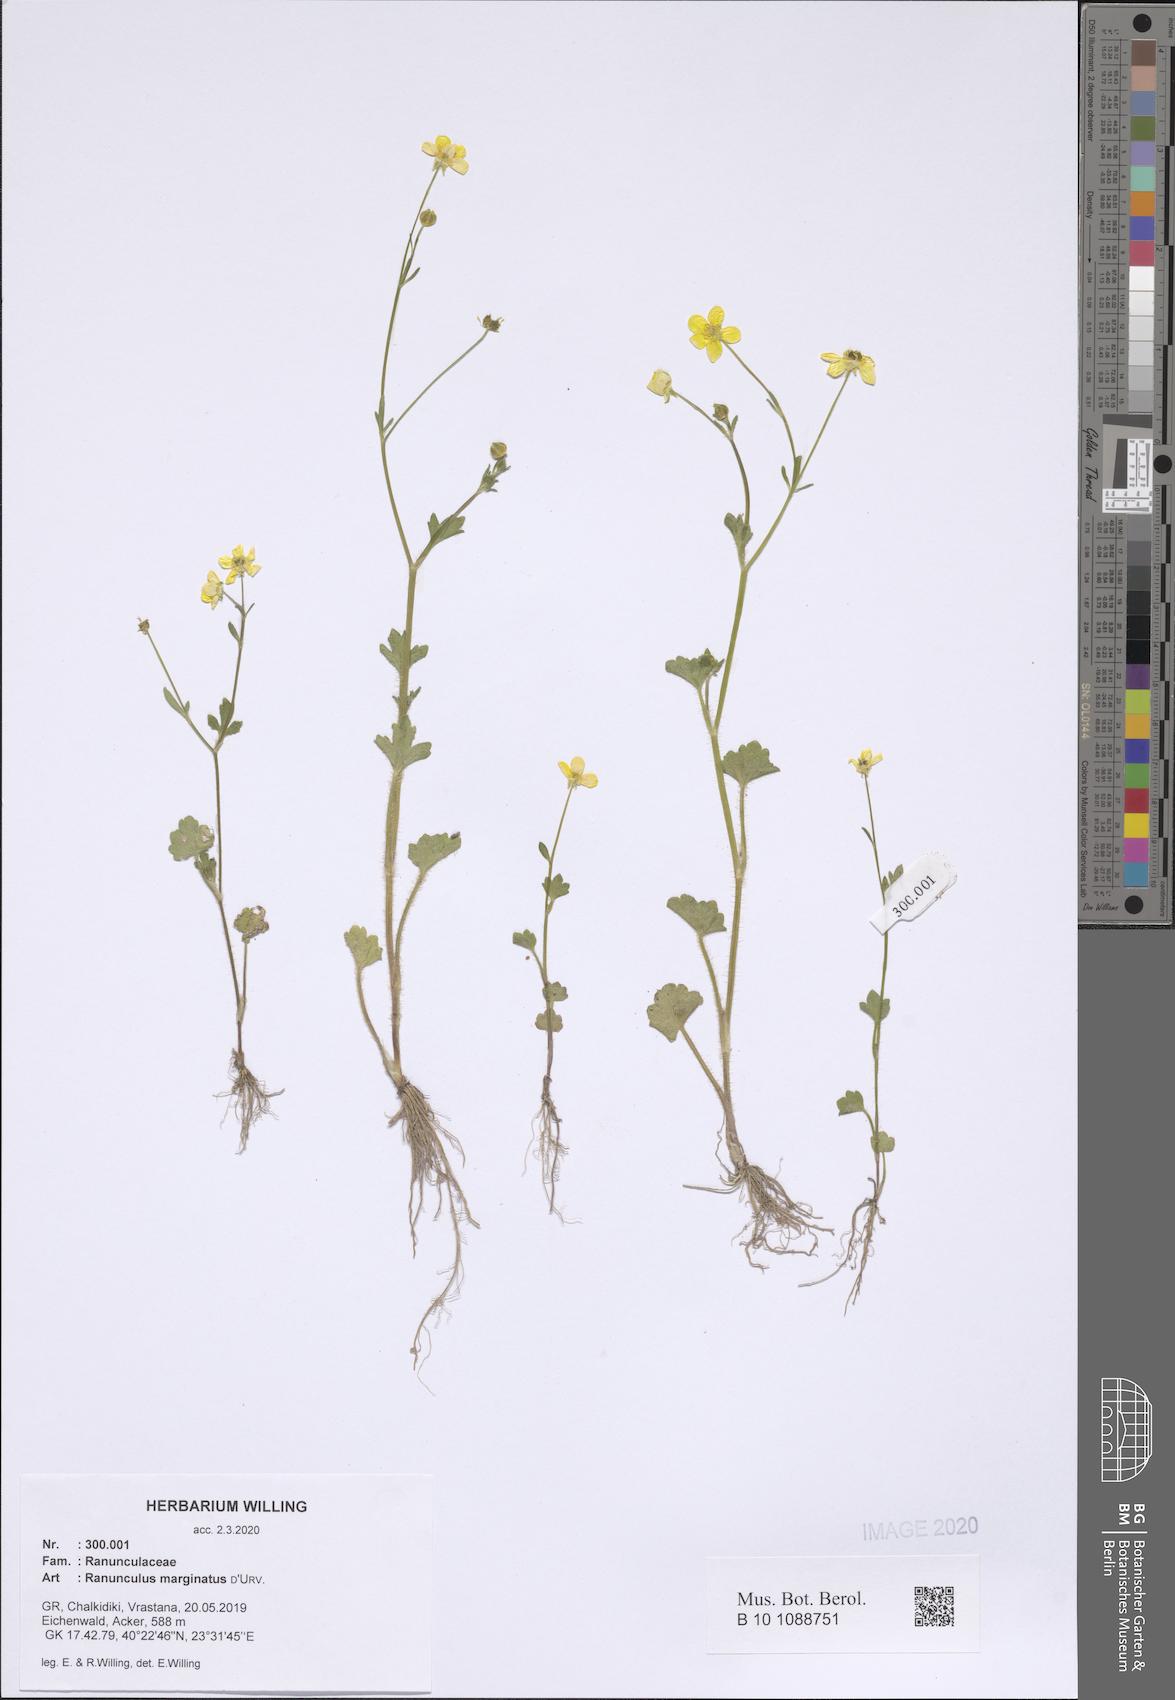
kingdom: Plantae
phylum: Tracheophyta
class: Magnoliopsida
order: Ranunculales
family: Ranunculaceae
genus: Ranunculus
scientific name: Ranunculus marginatus
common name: St. martin's buttercup
